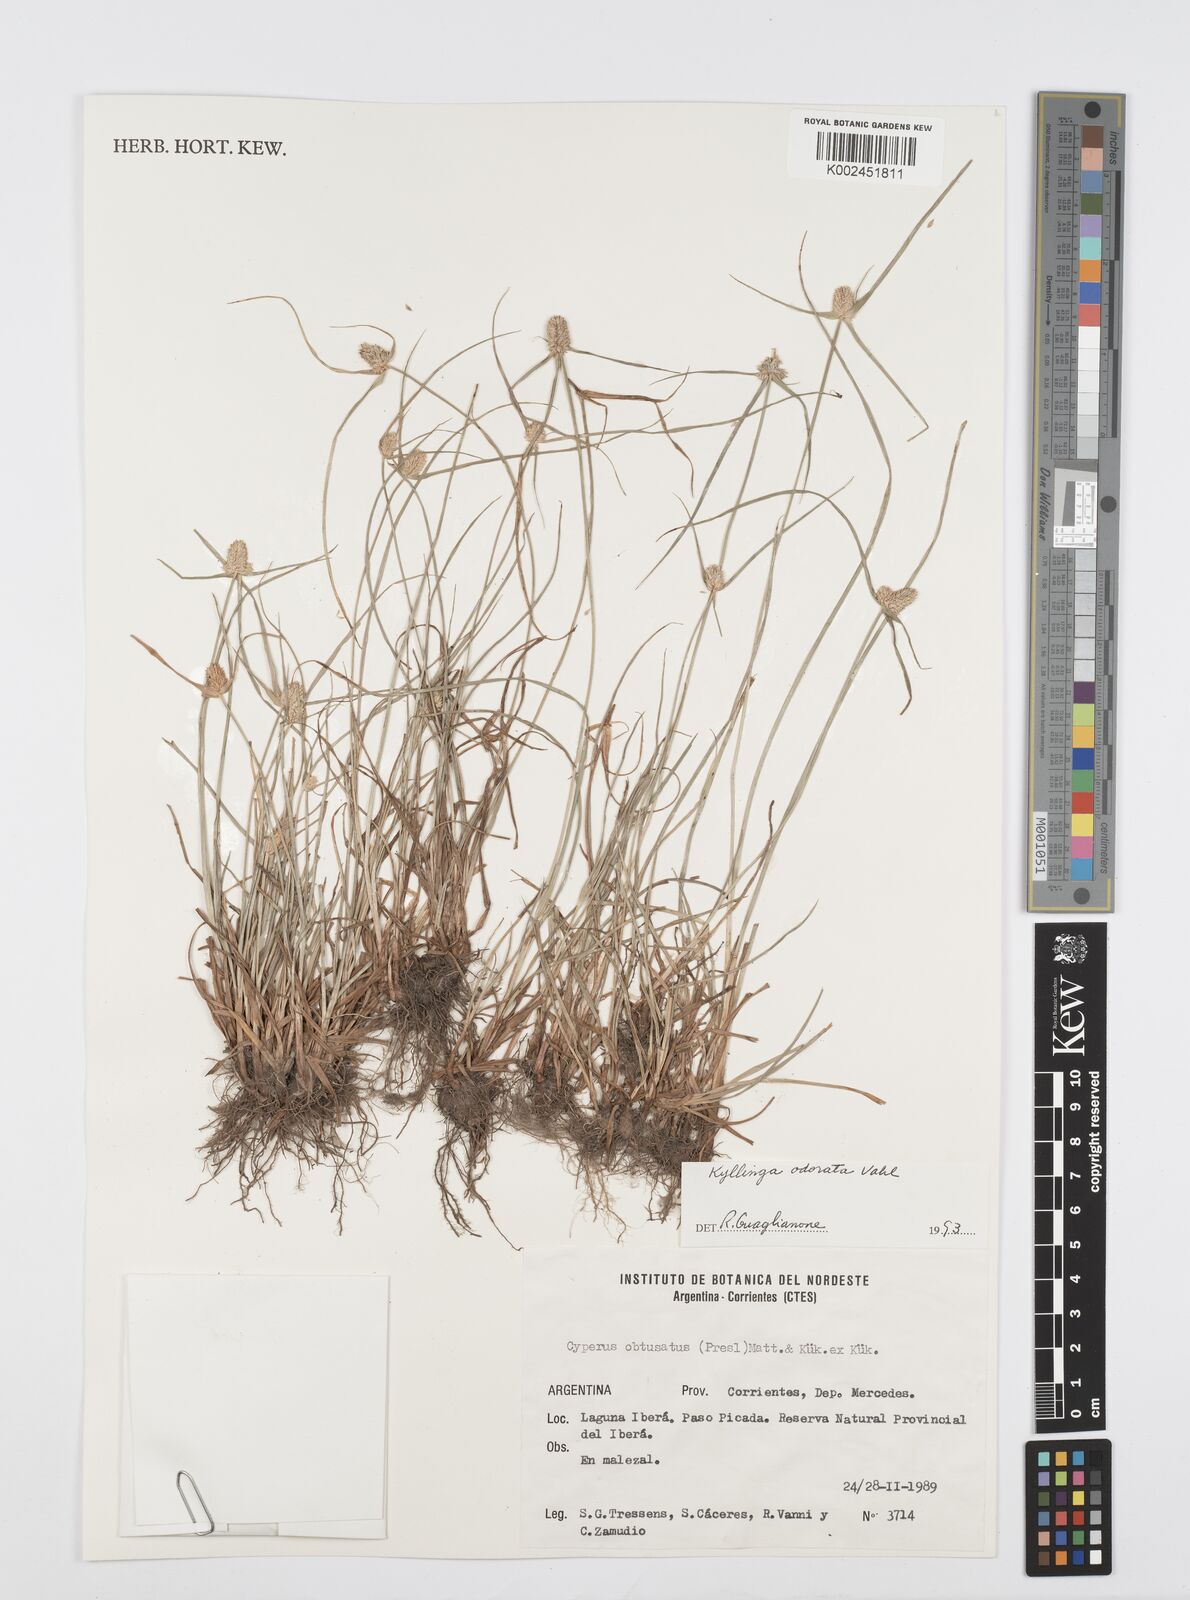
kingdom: Plantae
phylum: Tracheophyta
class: Liliopsida
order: Poales
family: Cyperaceae
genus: Cyperus
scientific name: Cyperus odoratus
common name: Fragrant flatsedge
